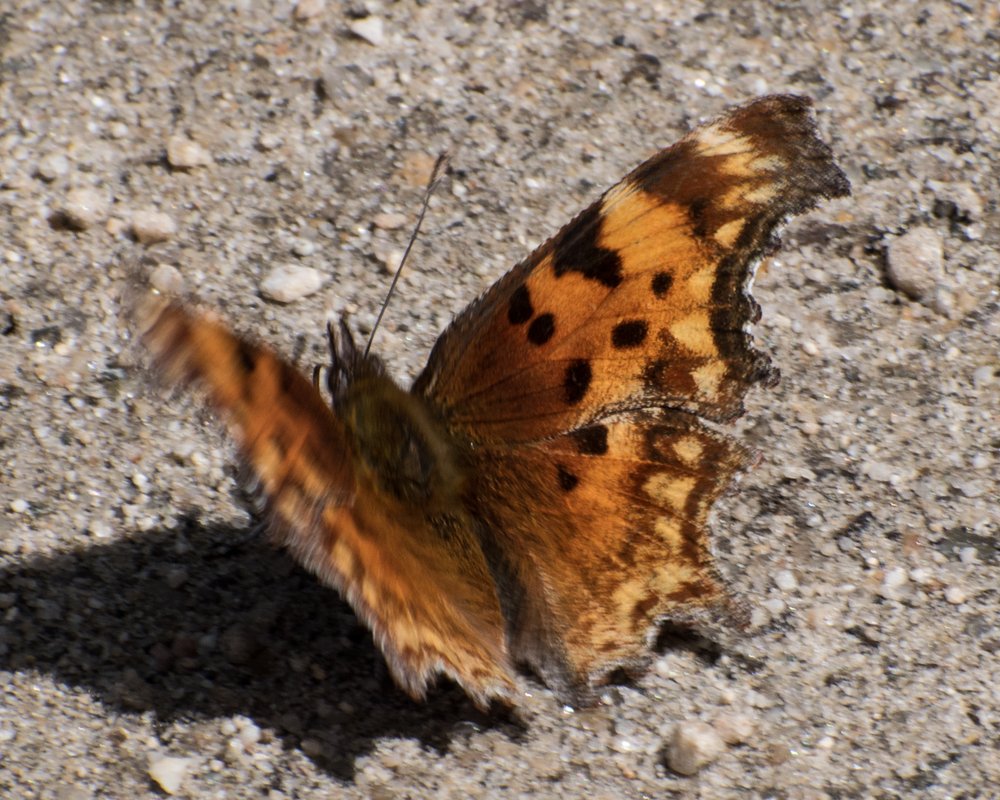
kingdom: Animalia
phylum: Arthropoda
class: Insecta
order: Lepidoptera
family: Nymphalidae
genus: Polygonia
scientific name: Polygonia gracilis
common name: Hoary Comma
